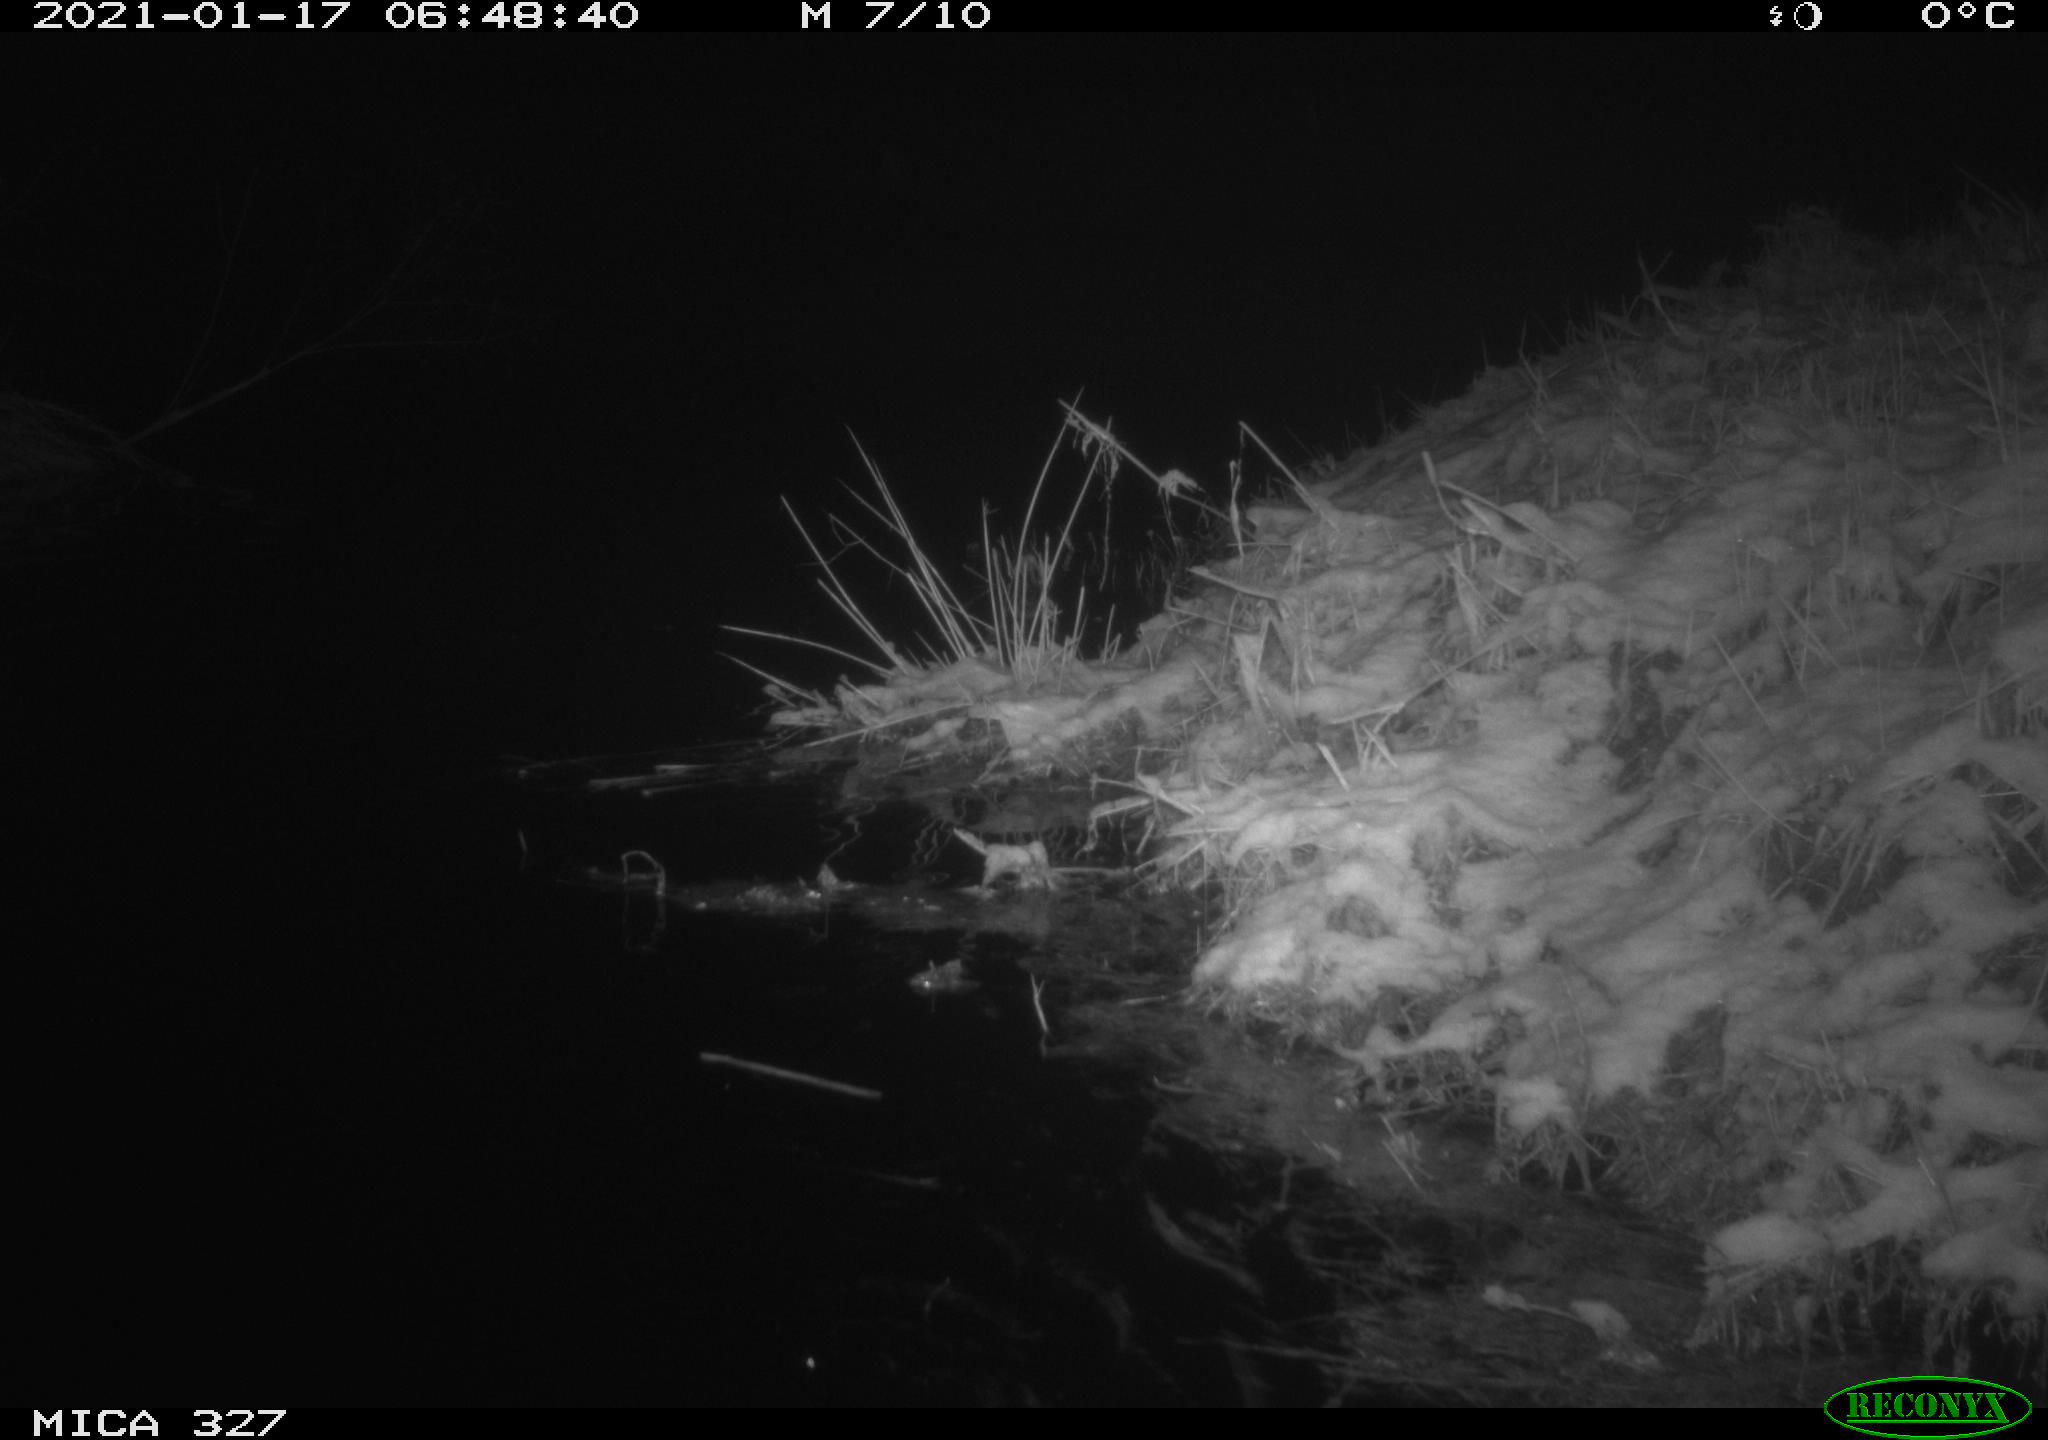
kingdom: Animalia
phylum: Chordata
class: Mammalia
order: Rodentia
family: Myocastoridae
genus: Myocastor
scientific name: Myocastor coypus
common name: Coypu
